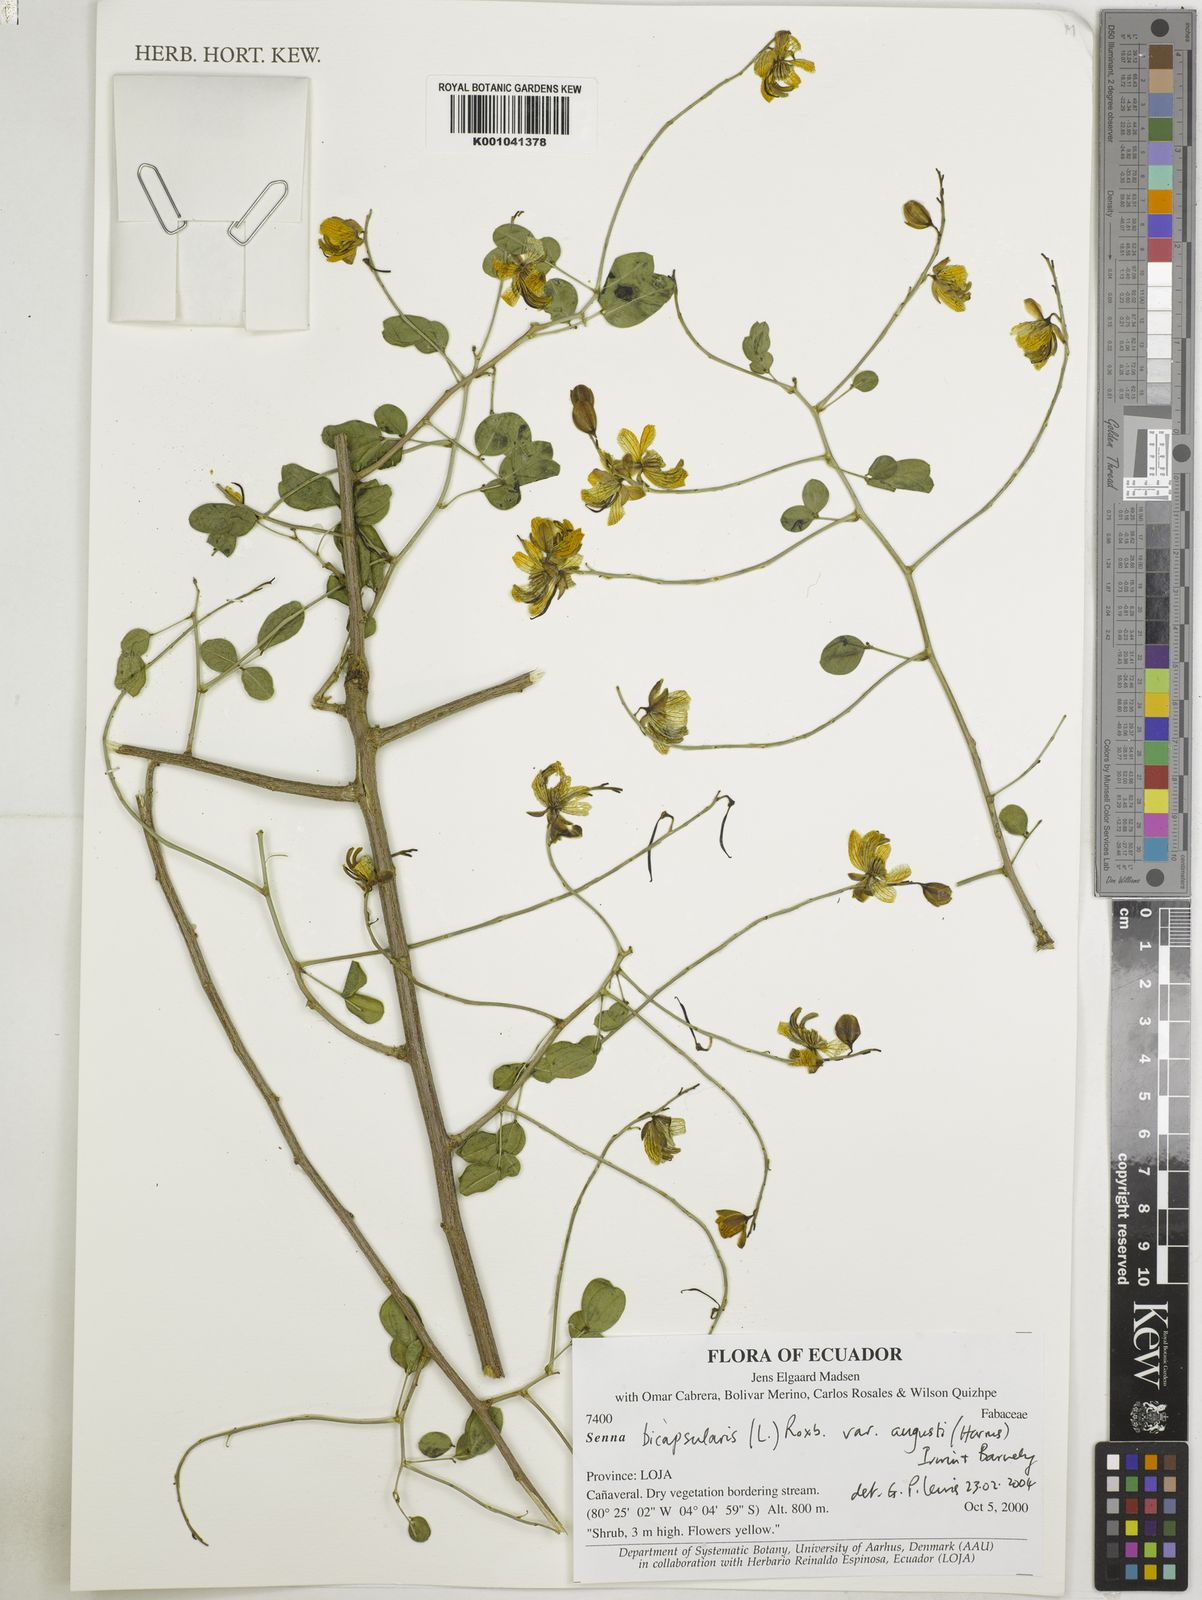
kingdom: Plantae
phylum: Tracheophyta
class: Magnoliopsida
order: Fabales
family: Fabaceae
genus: Senna
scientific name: Senna bicapsularis
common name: Christmasbush
